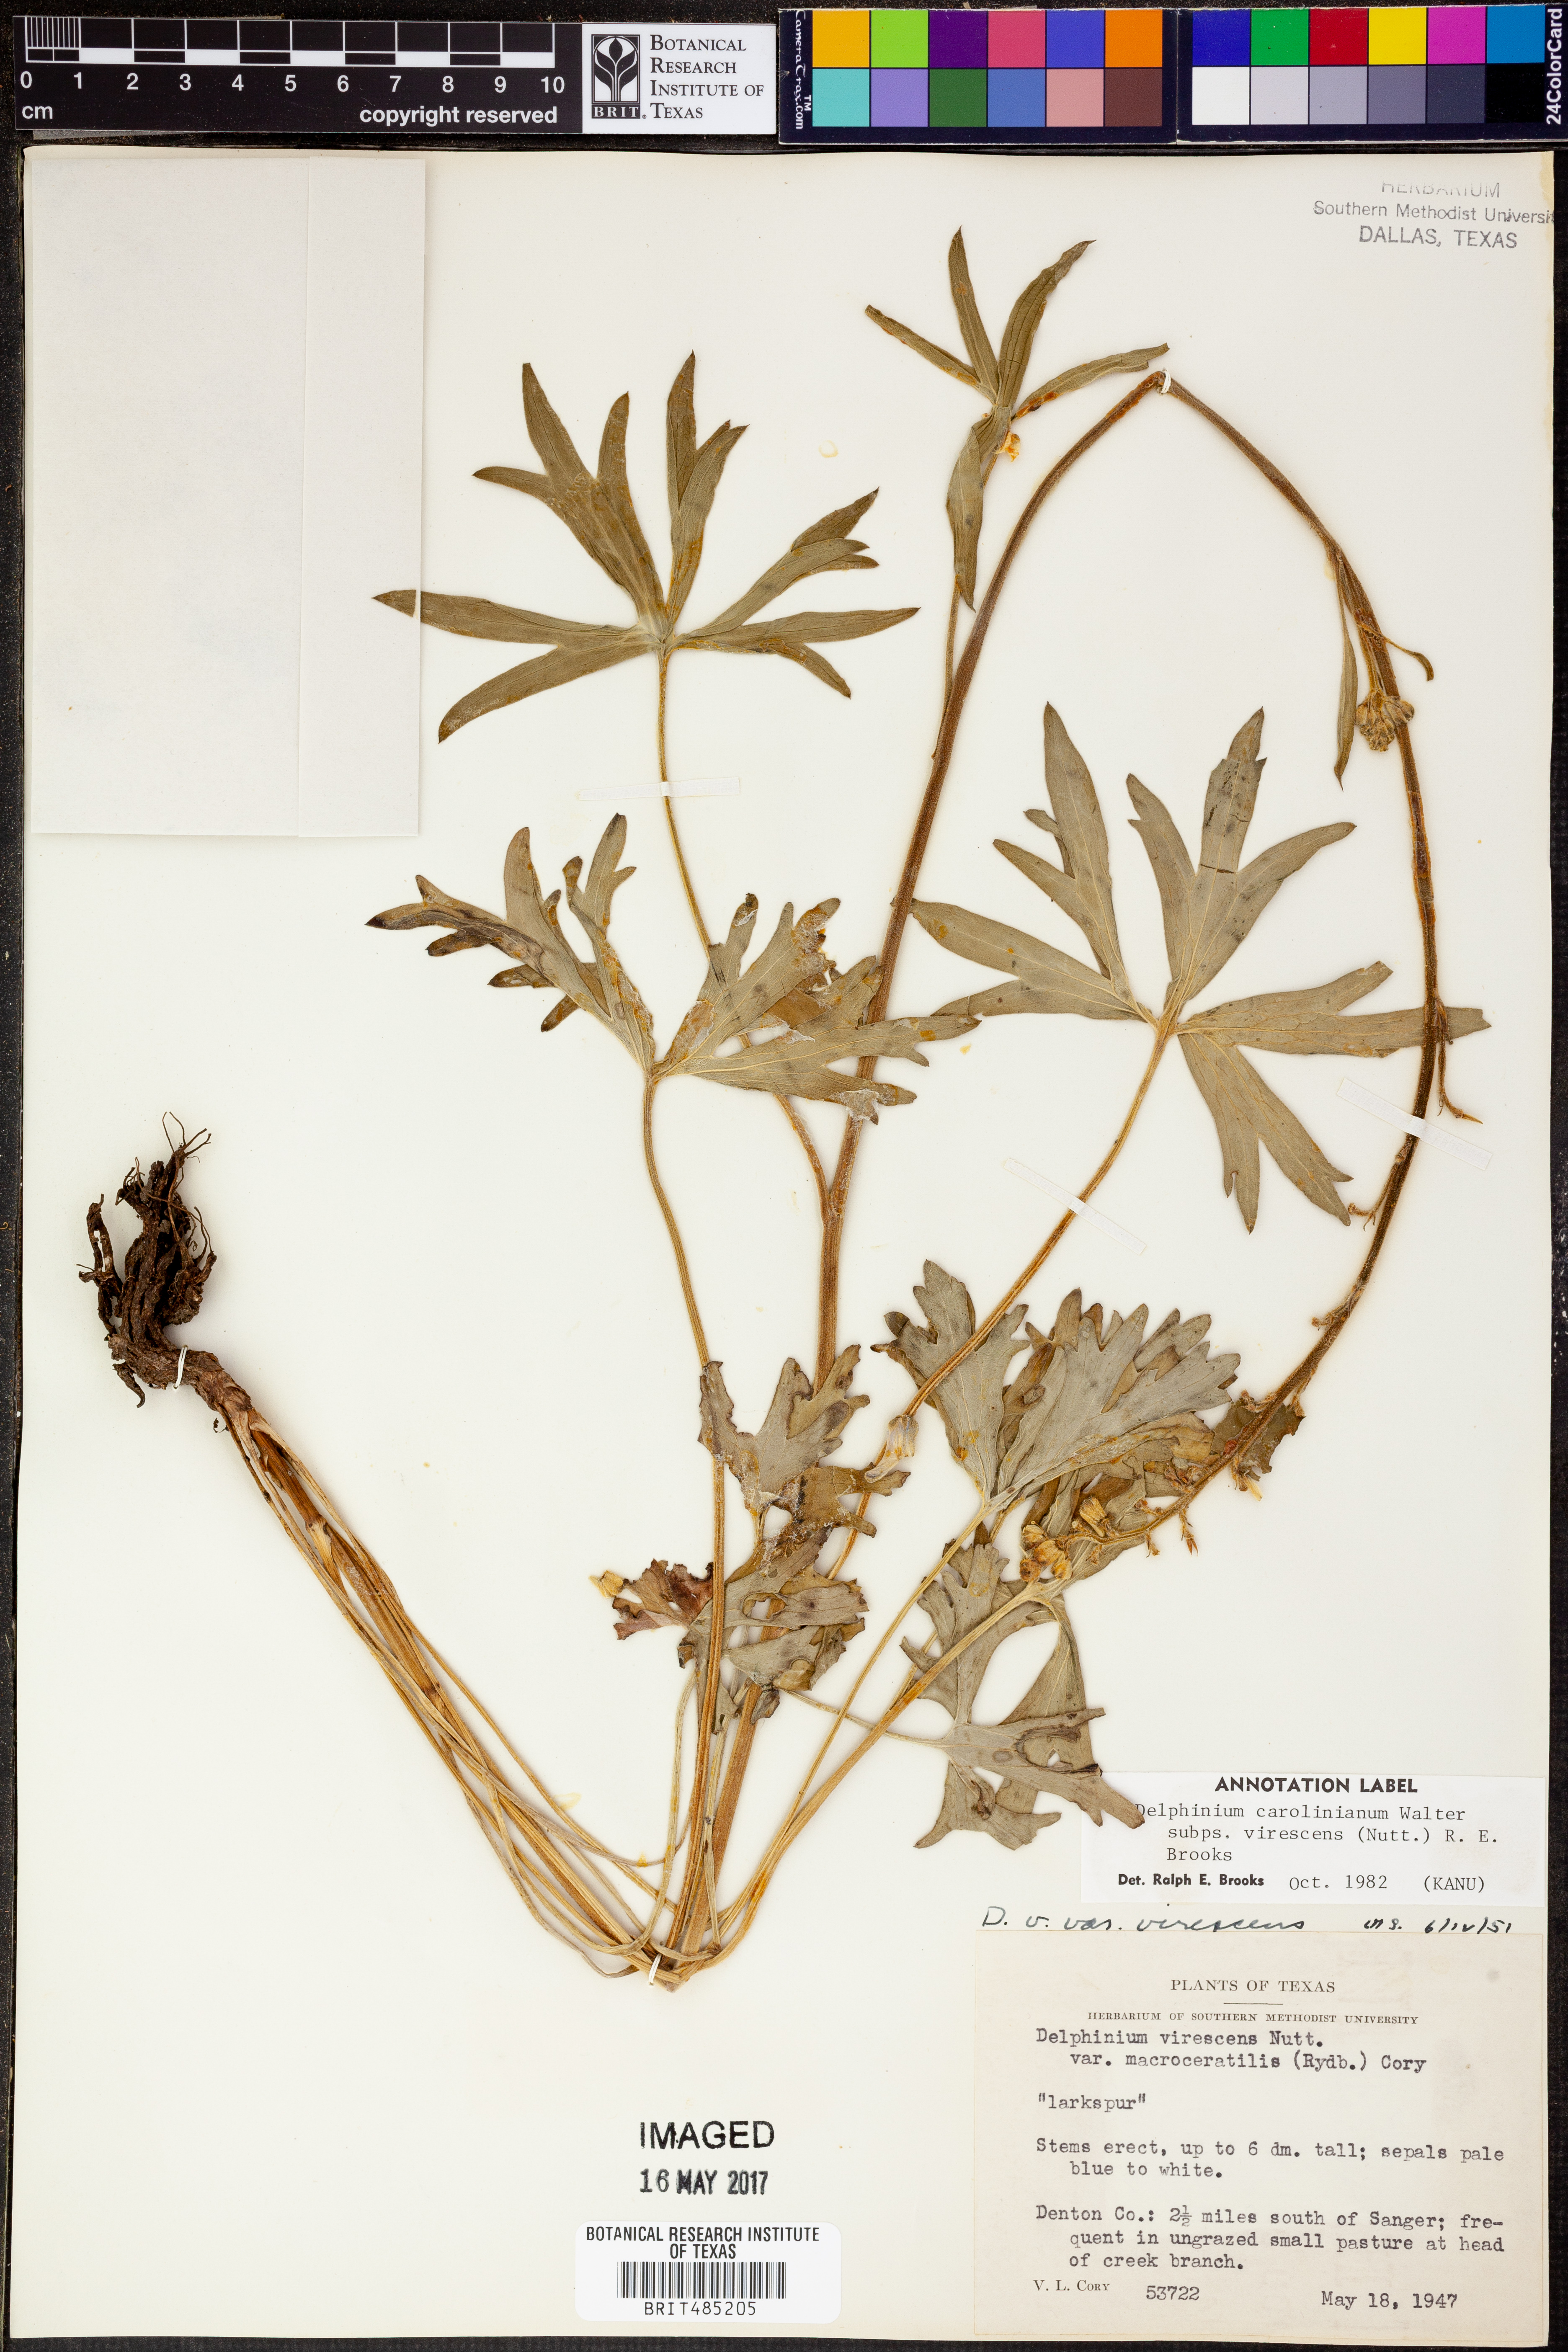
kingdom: Plantae
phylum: Tracheophyta
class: Magnoliopsida
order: Ranunculales
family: Ranunculaceae
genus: Delphinium
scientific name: Delphinium carolinianum
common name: Carolina larkspur
